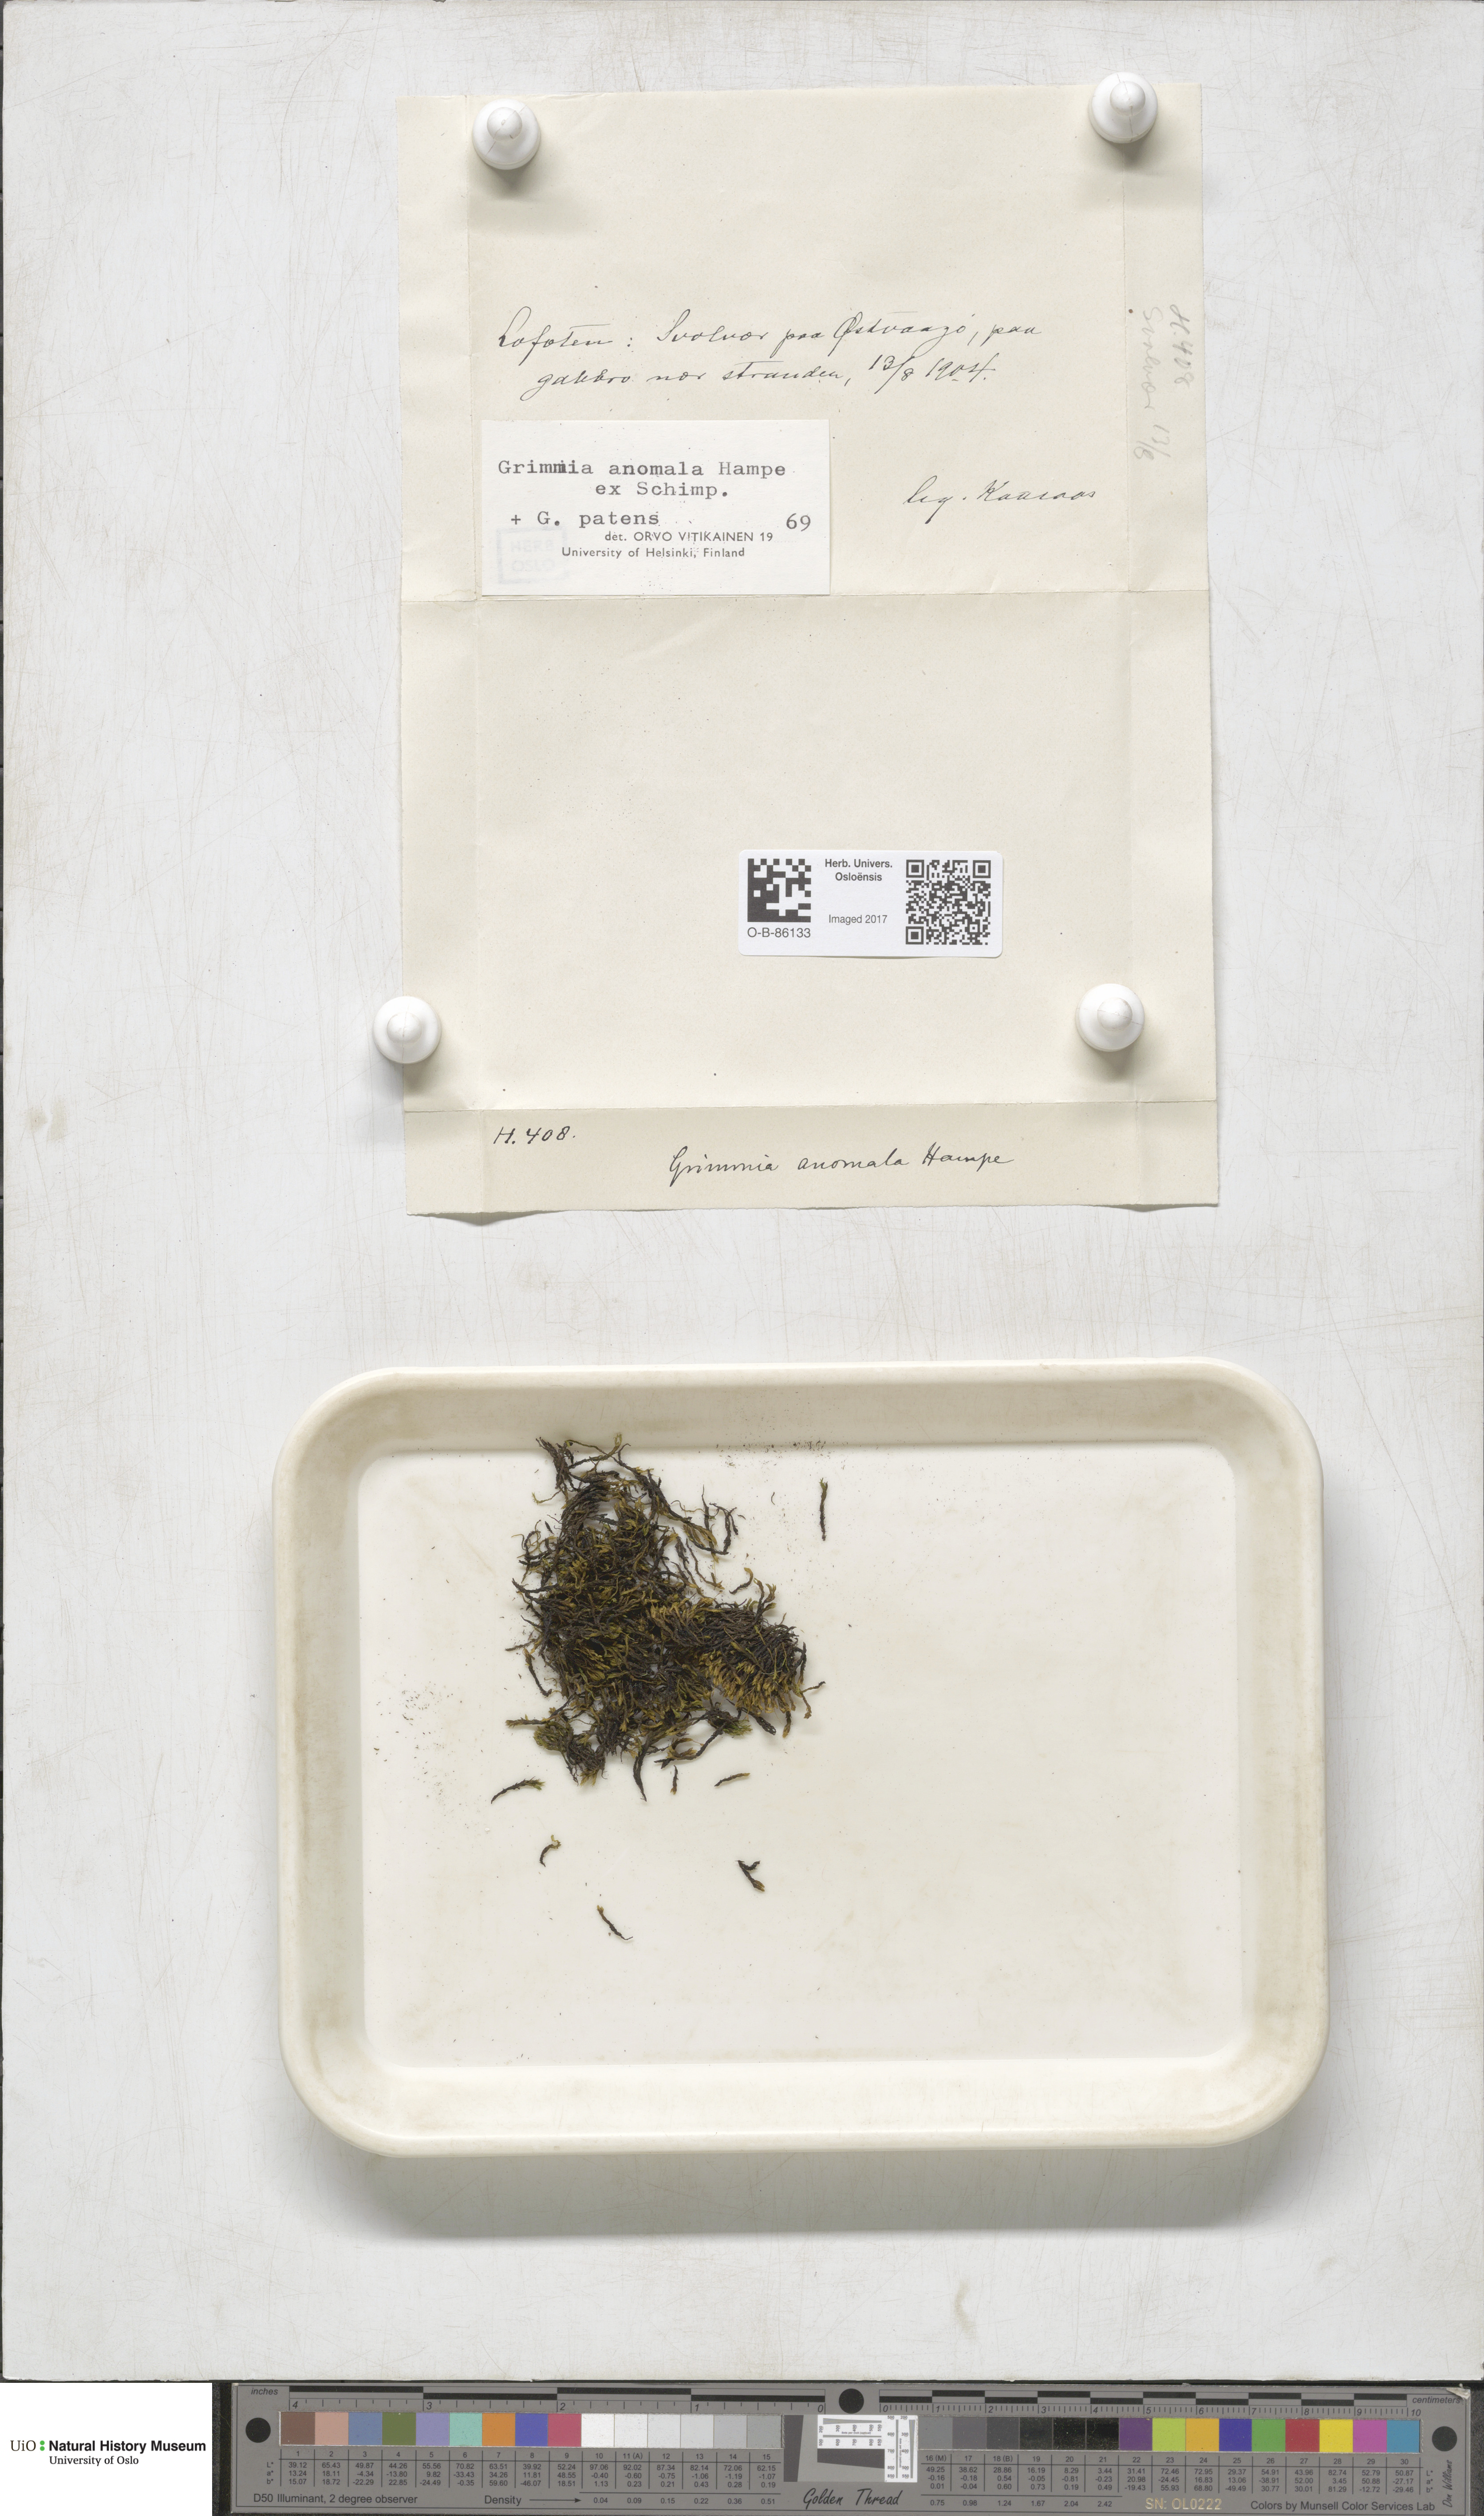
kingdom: Plantae
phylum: Bryophyta
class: Bryopsida
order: Grimmiales
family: Grimmiaceae
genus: Grimmia
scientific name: Grimmia anomala
